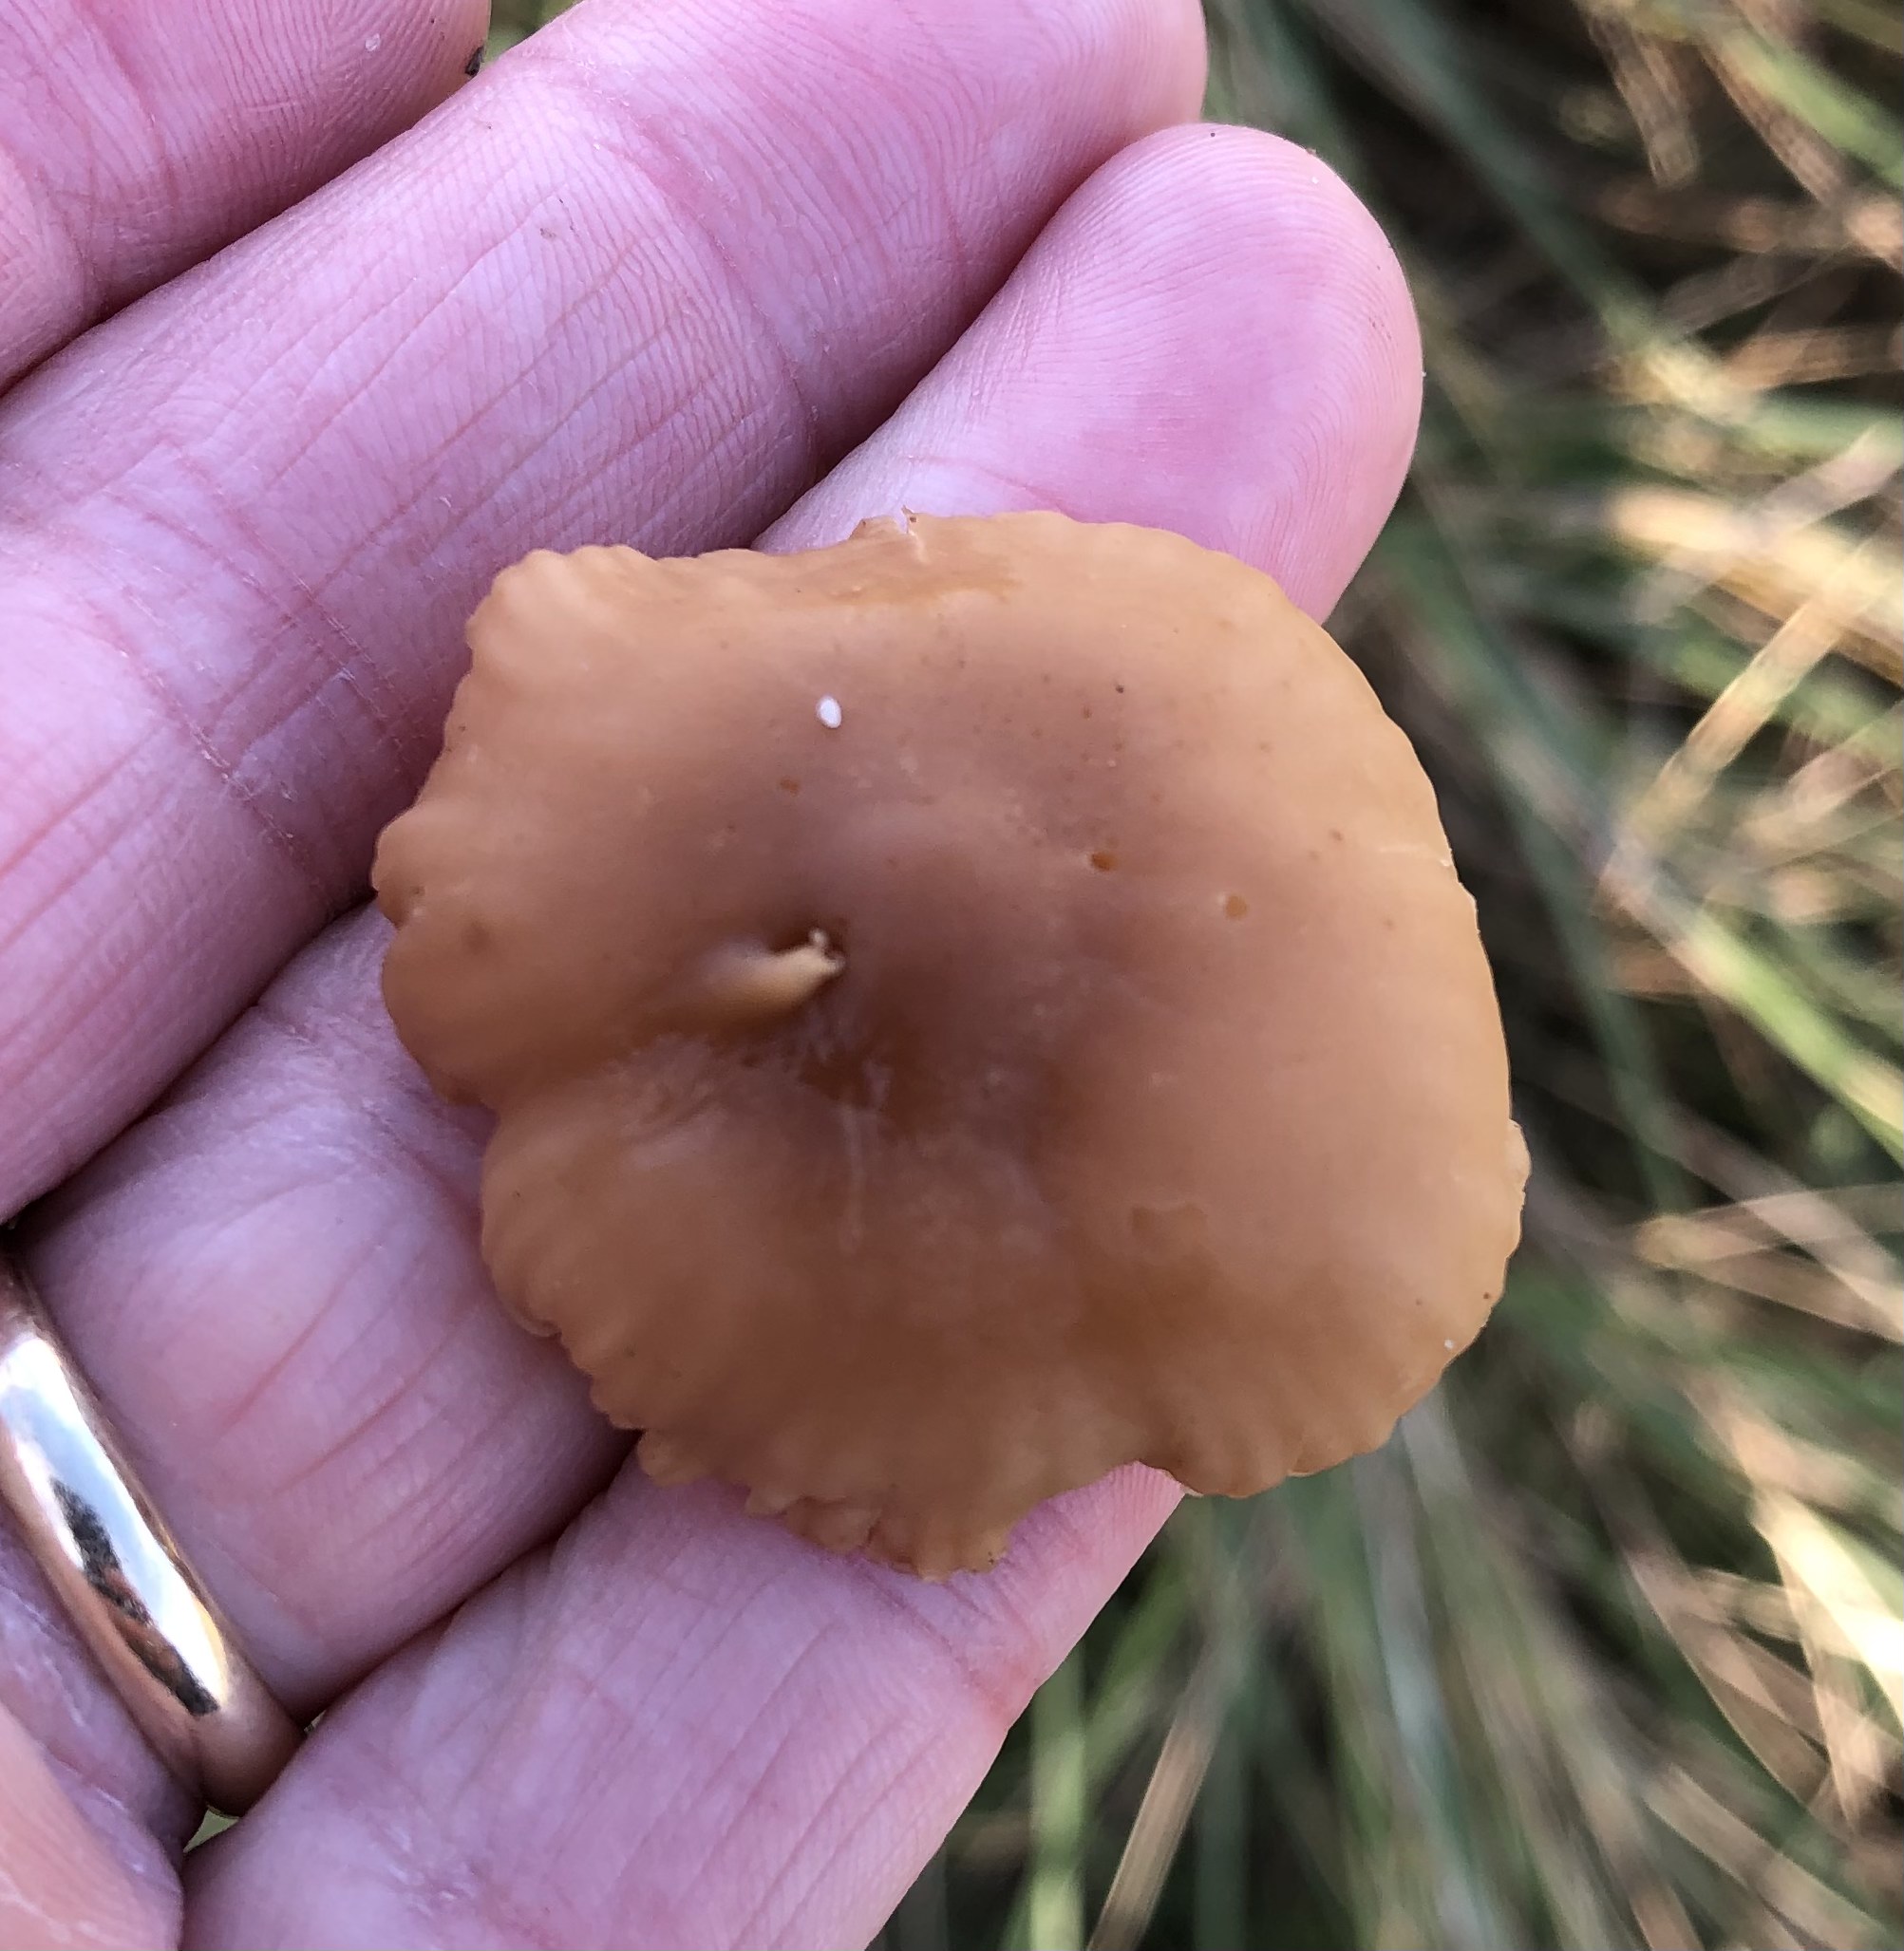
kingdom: Fungi
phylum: Basidiomycota
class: Agaricomycetes
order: Agaricales
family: Marasmiaceae
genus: Marasmius
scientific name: Marasmius oreades
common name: elledans-bruskhat
